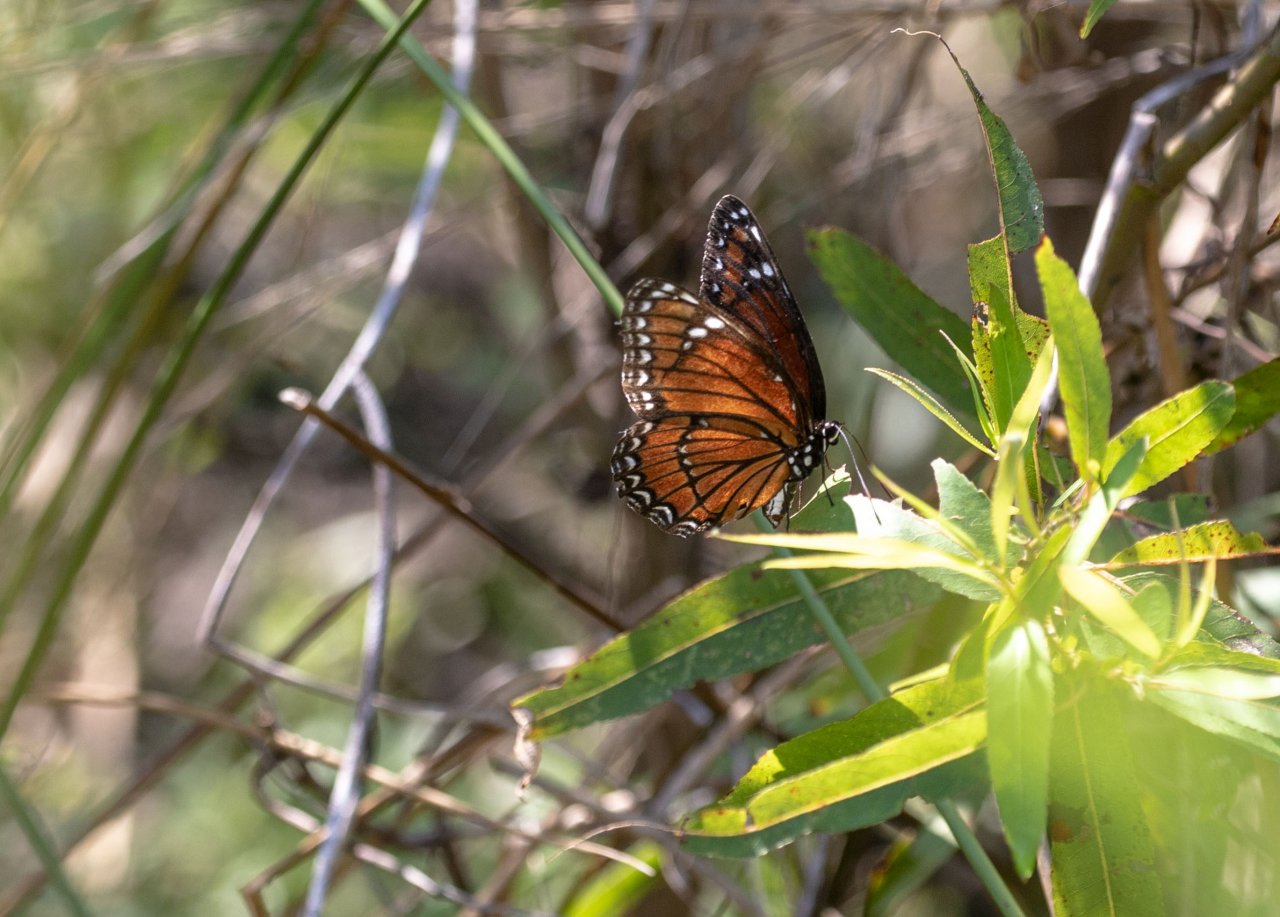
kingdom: Animalia
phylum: Arthropoda
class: Insecta
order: Lepidoptera
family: Nymphalidae
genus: Limenitis
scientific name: Limenitis archippus
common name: Viceroy
